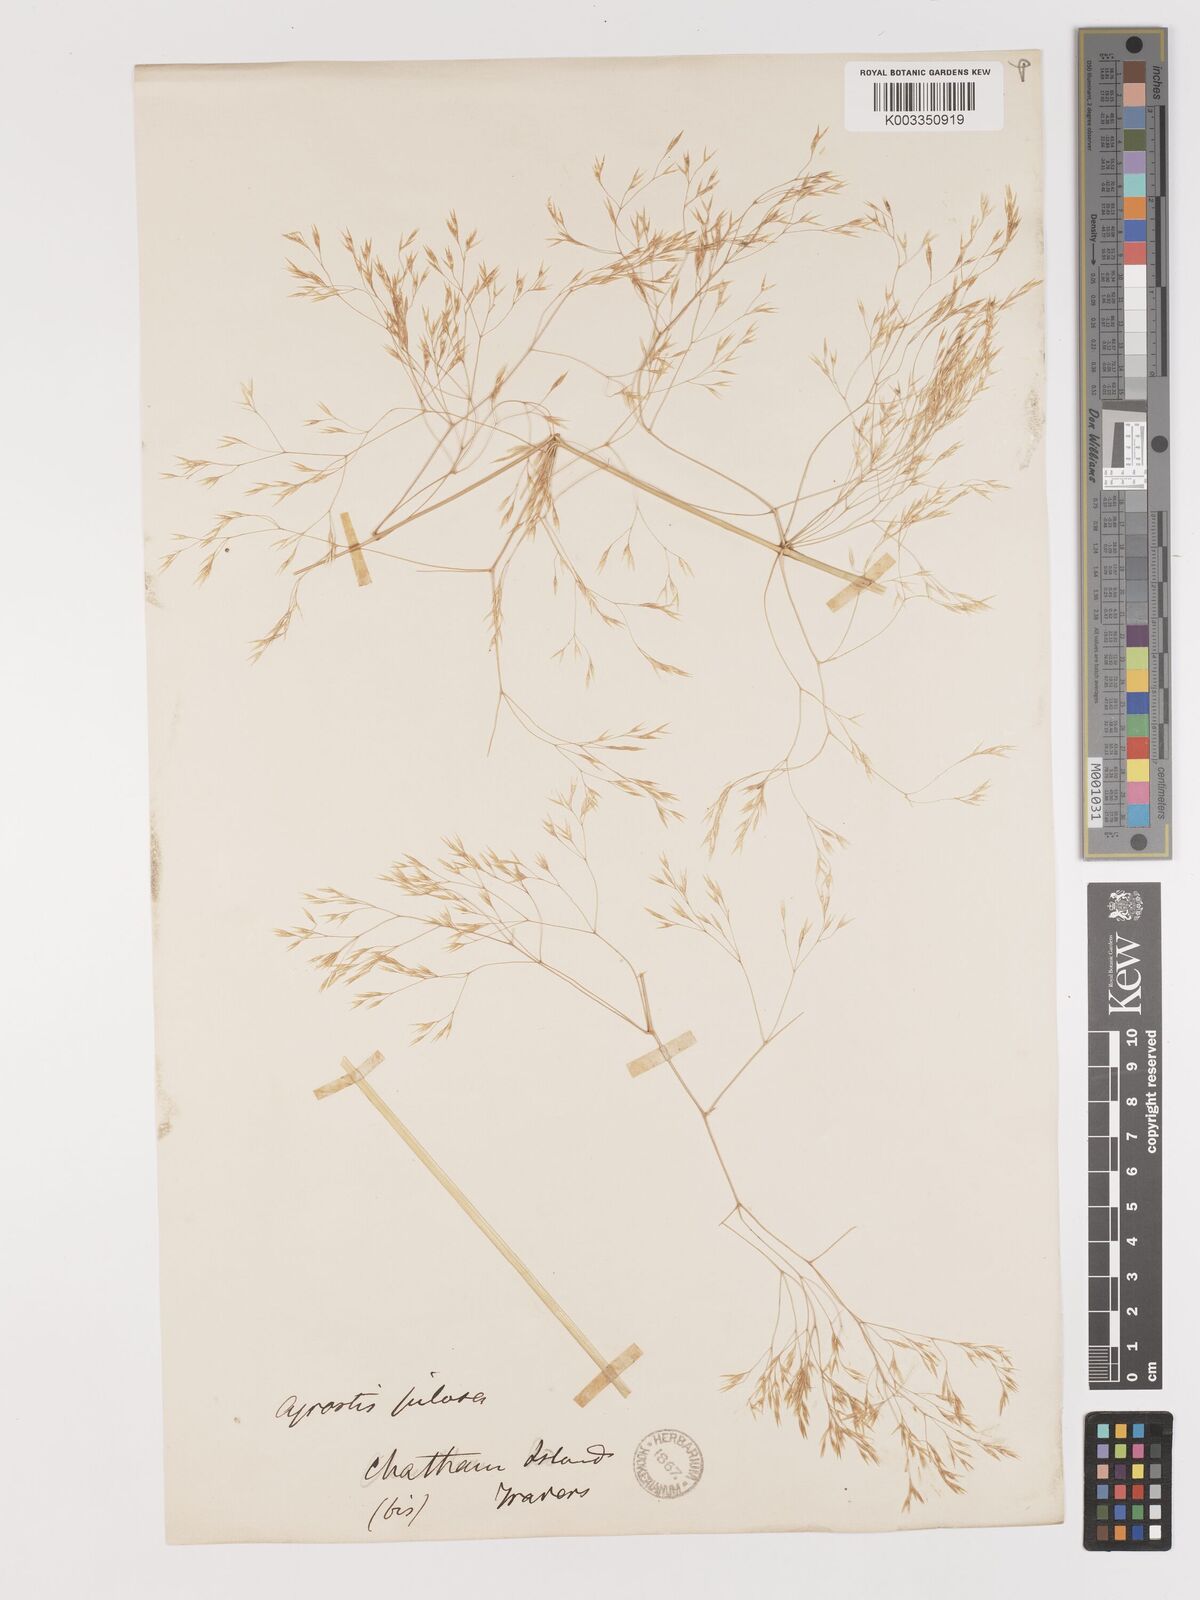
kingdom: Plantae
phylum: Tracheophyta
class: Liliopsida
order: Poales
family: Poaceae
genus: Lachnagrostis
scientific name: Lachnagrostis pilosa
